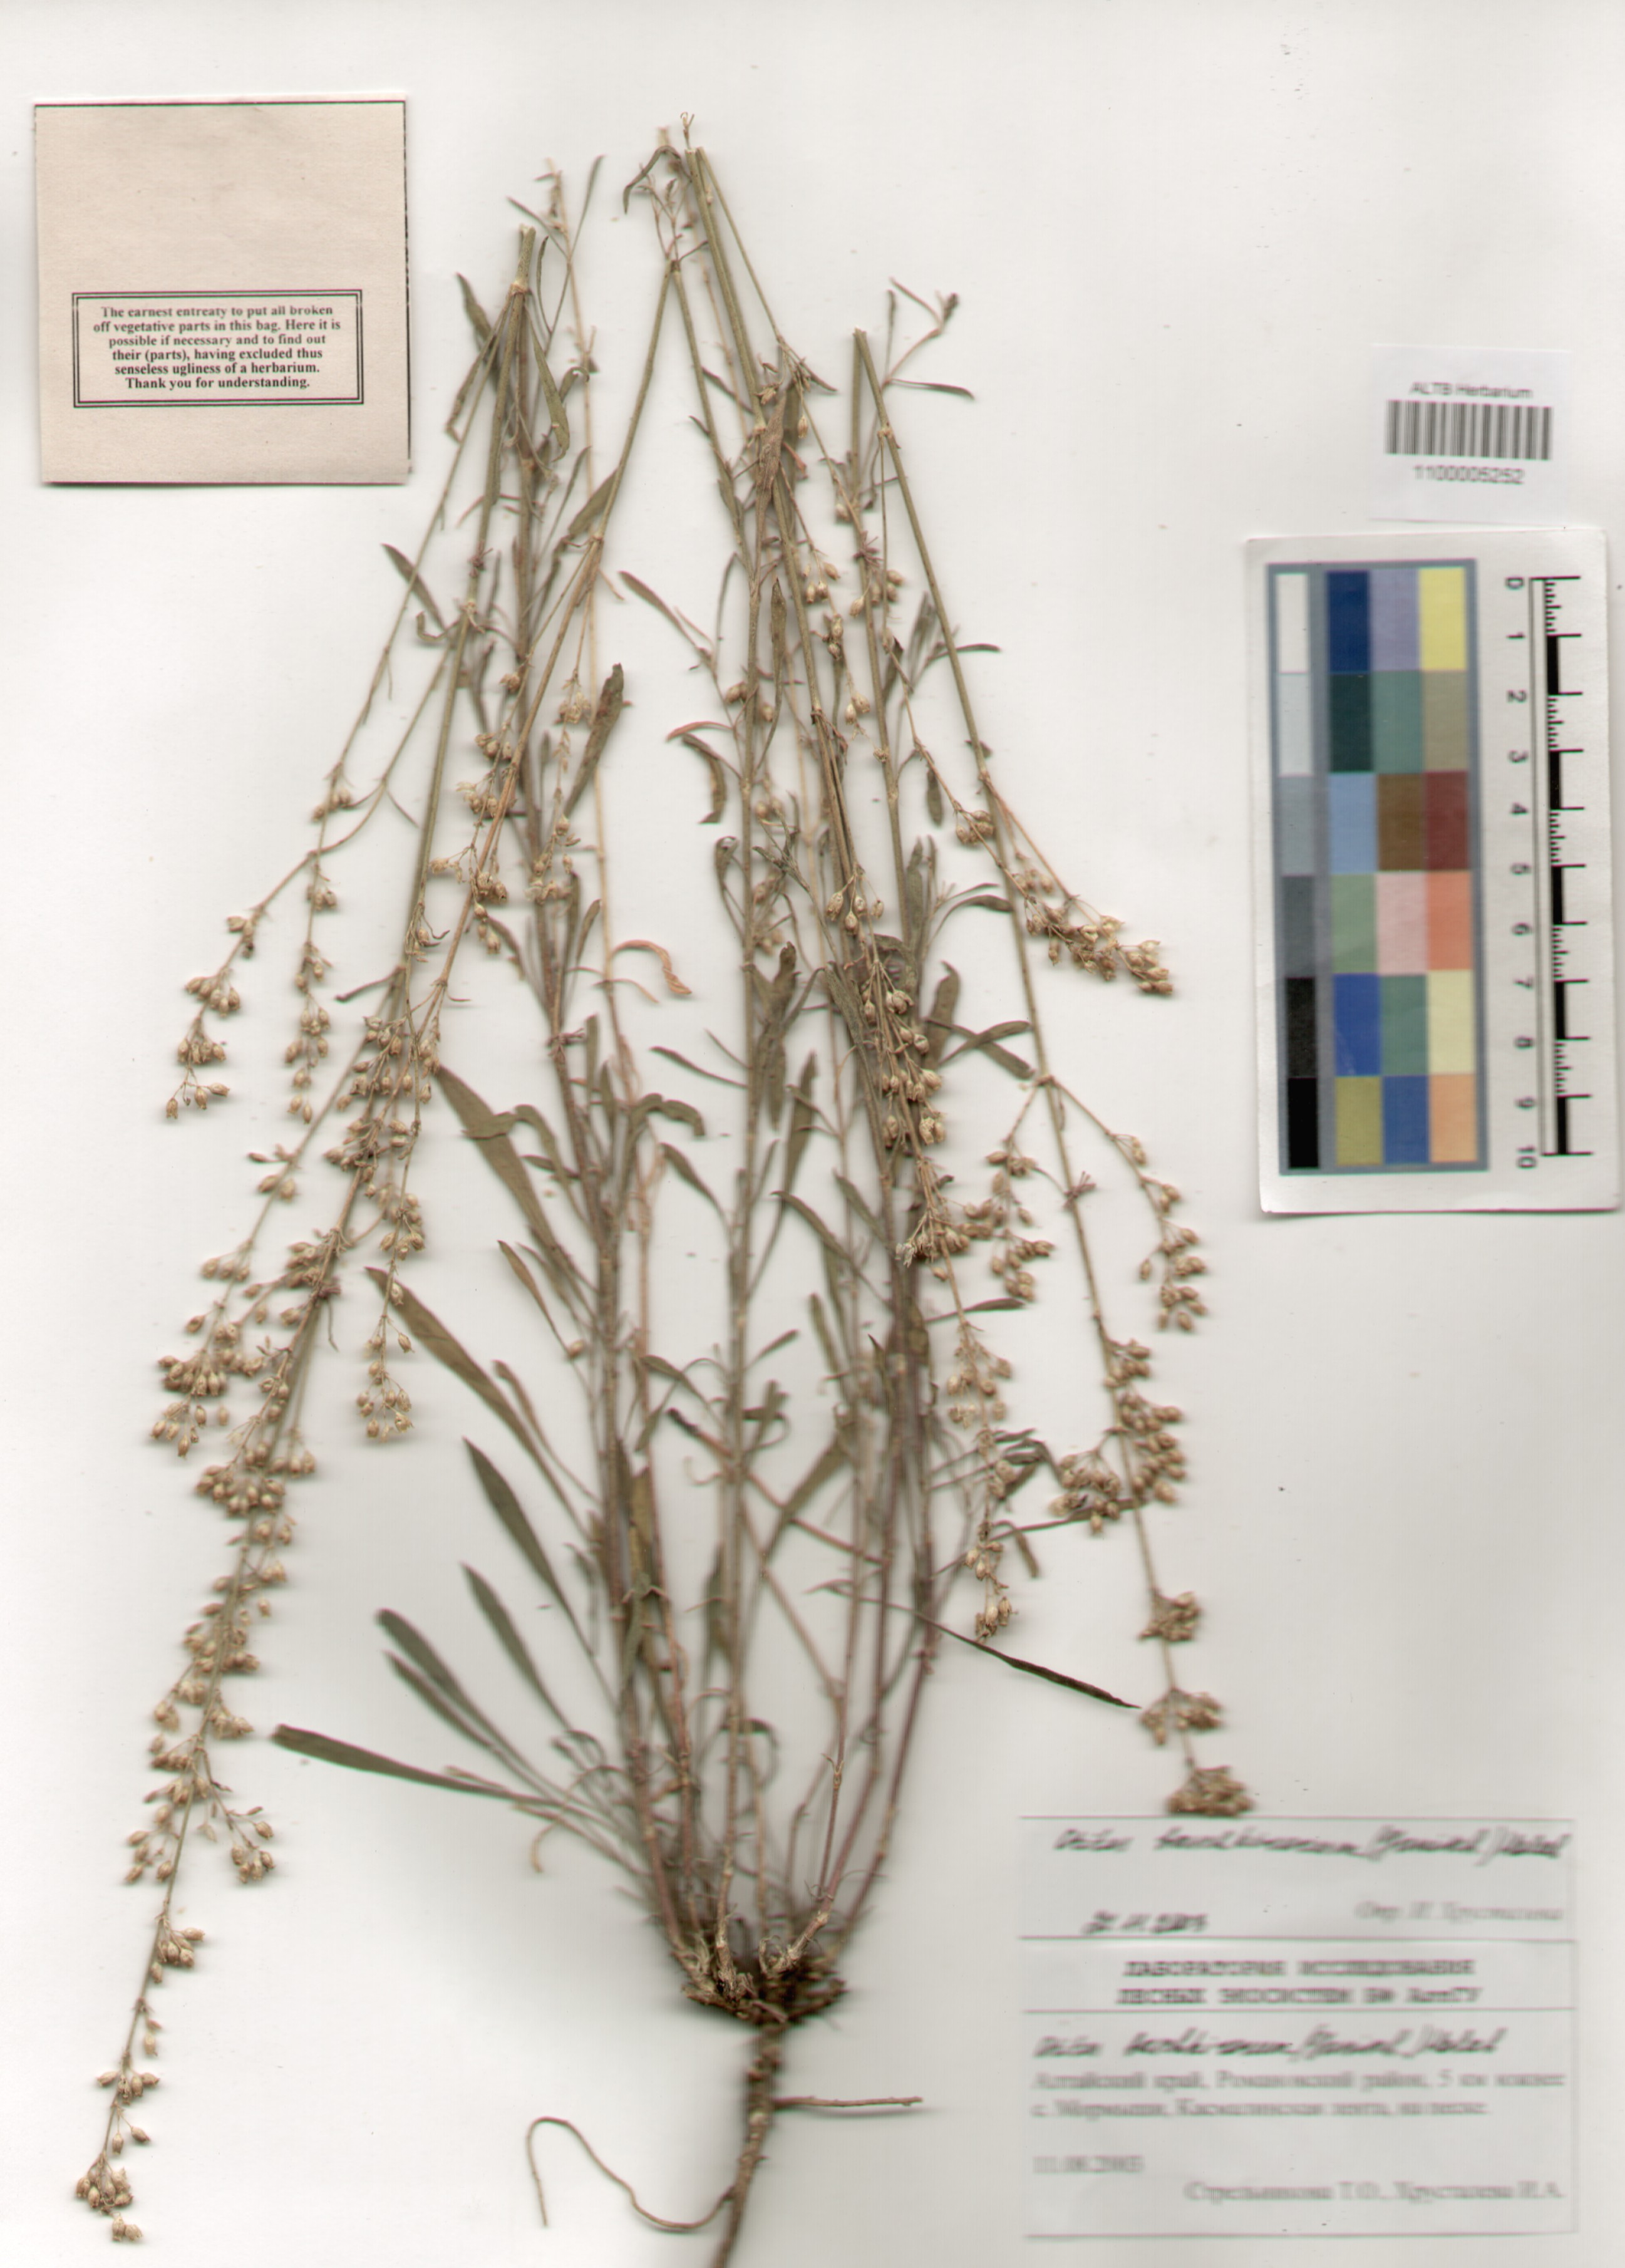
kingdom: Plantae
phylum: Tracheophyta
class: Magnoliopsida
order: Caryophyllales
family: Caryophyllaceae
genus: Silene
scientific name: Silene baschkirorum
